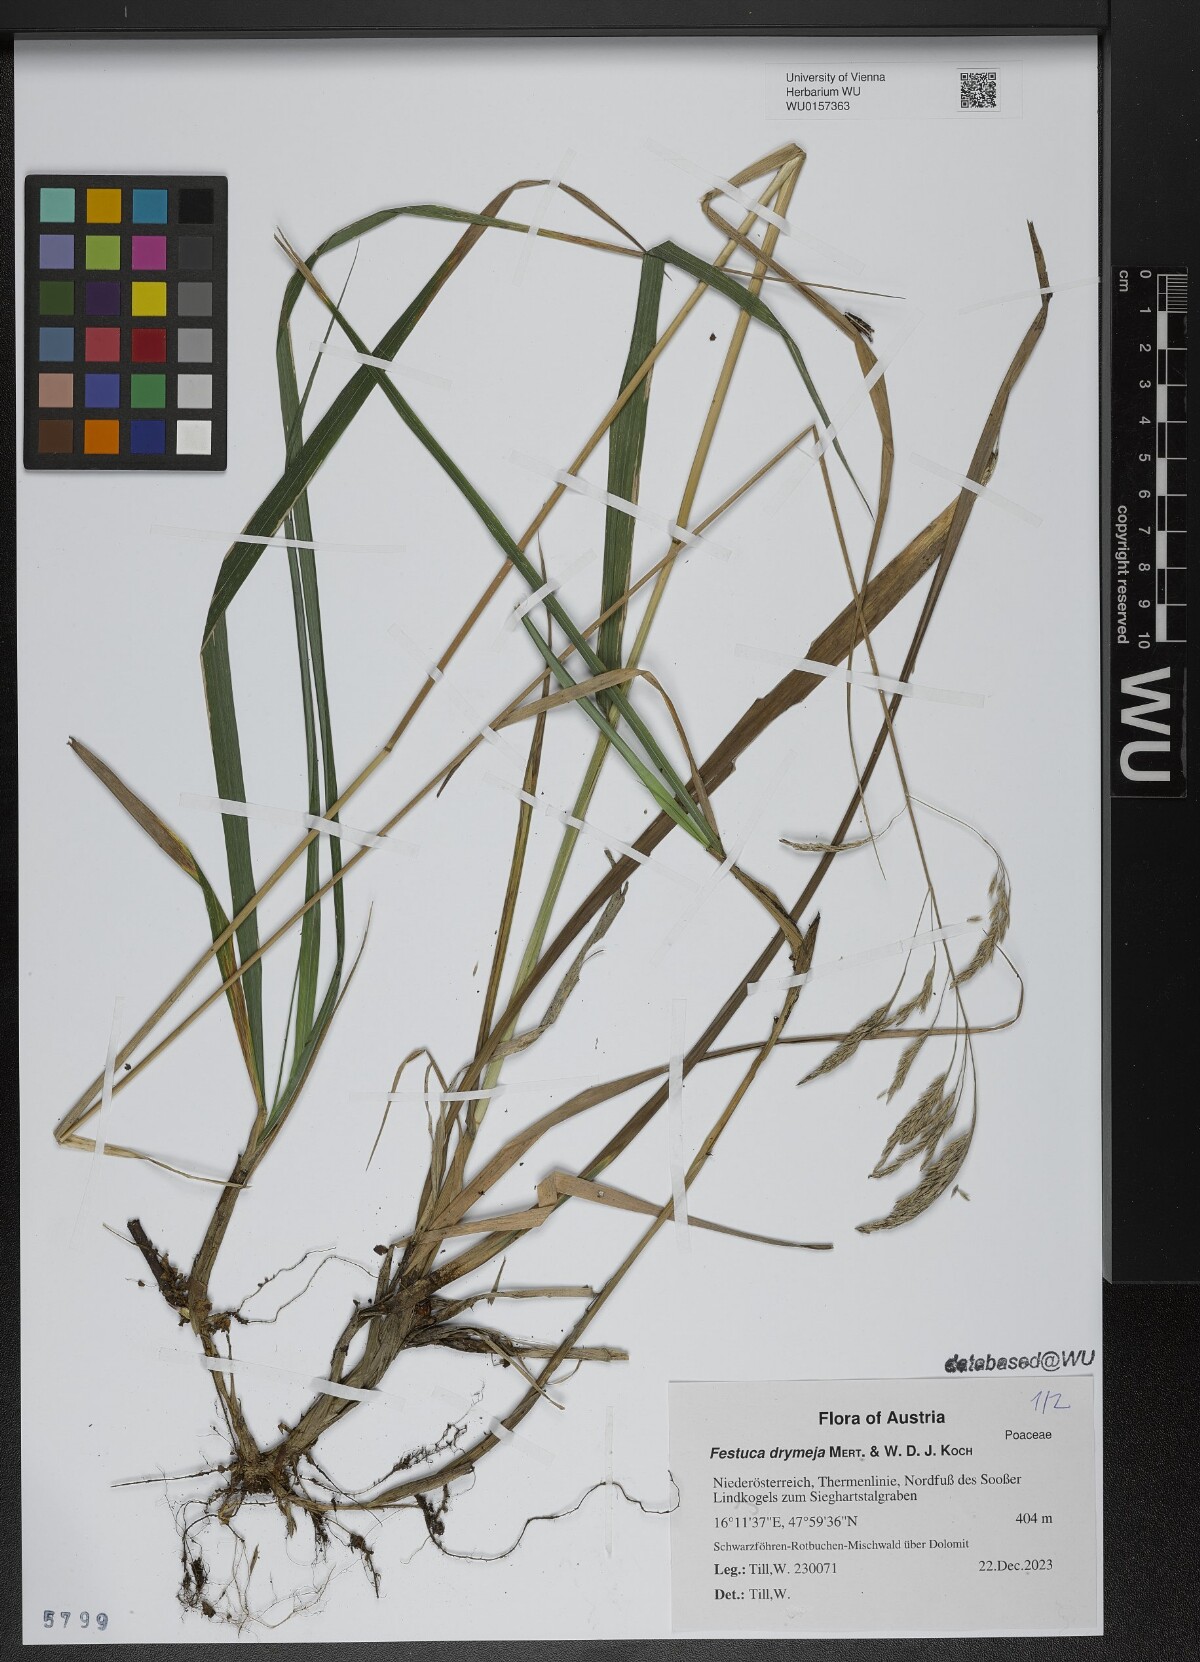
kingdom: Plantae
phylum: Tracheophyta
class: Liliopsida
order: Poales
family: Poaceae
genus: Festuca
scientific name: Festuca drymeja
